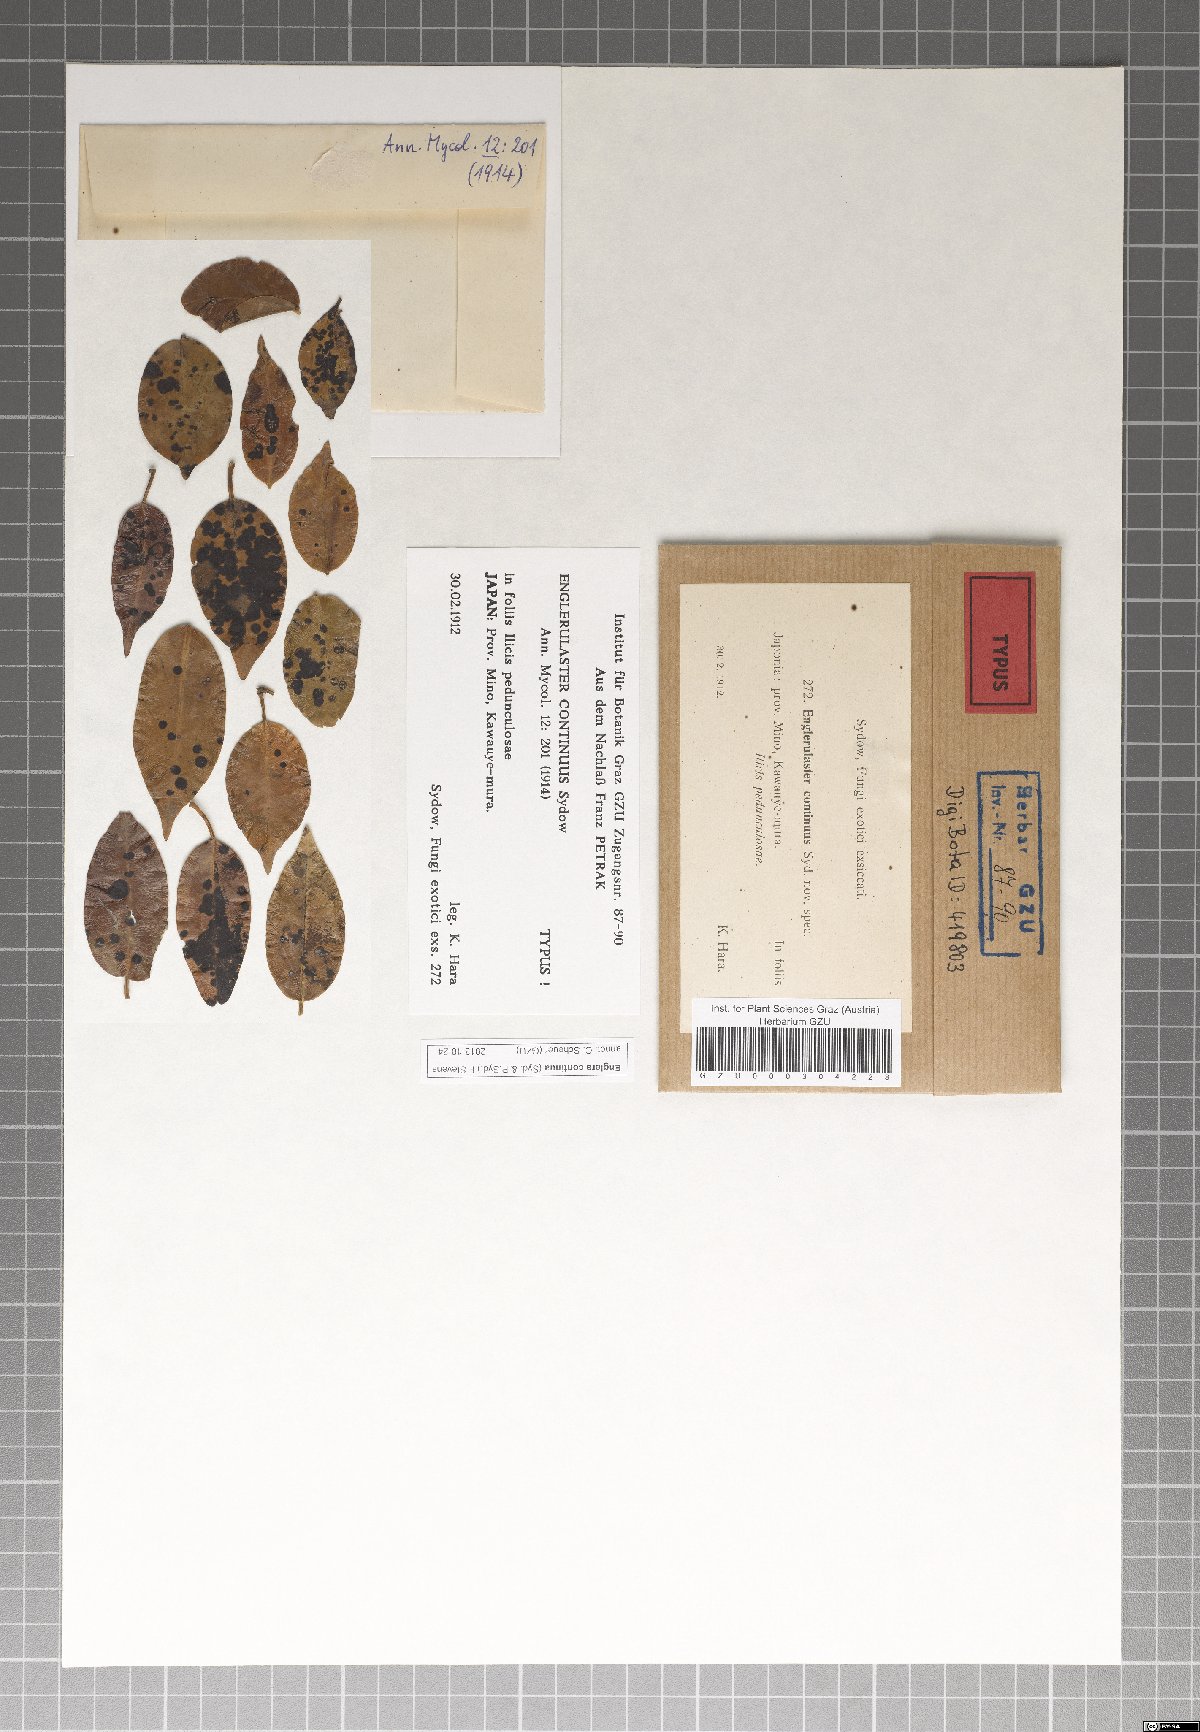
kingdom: Fungi
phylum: Ascomycota
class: Dothideomycetes
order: Asterinales
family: Asterinaceae
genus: Englera
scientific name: Englera continuus
